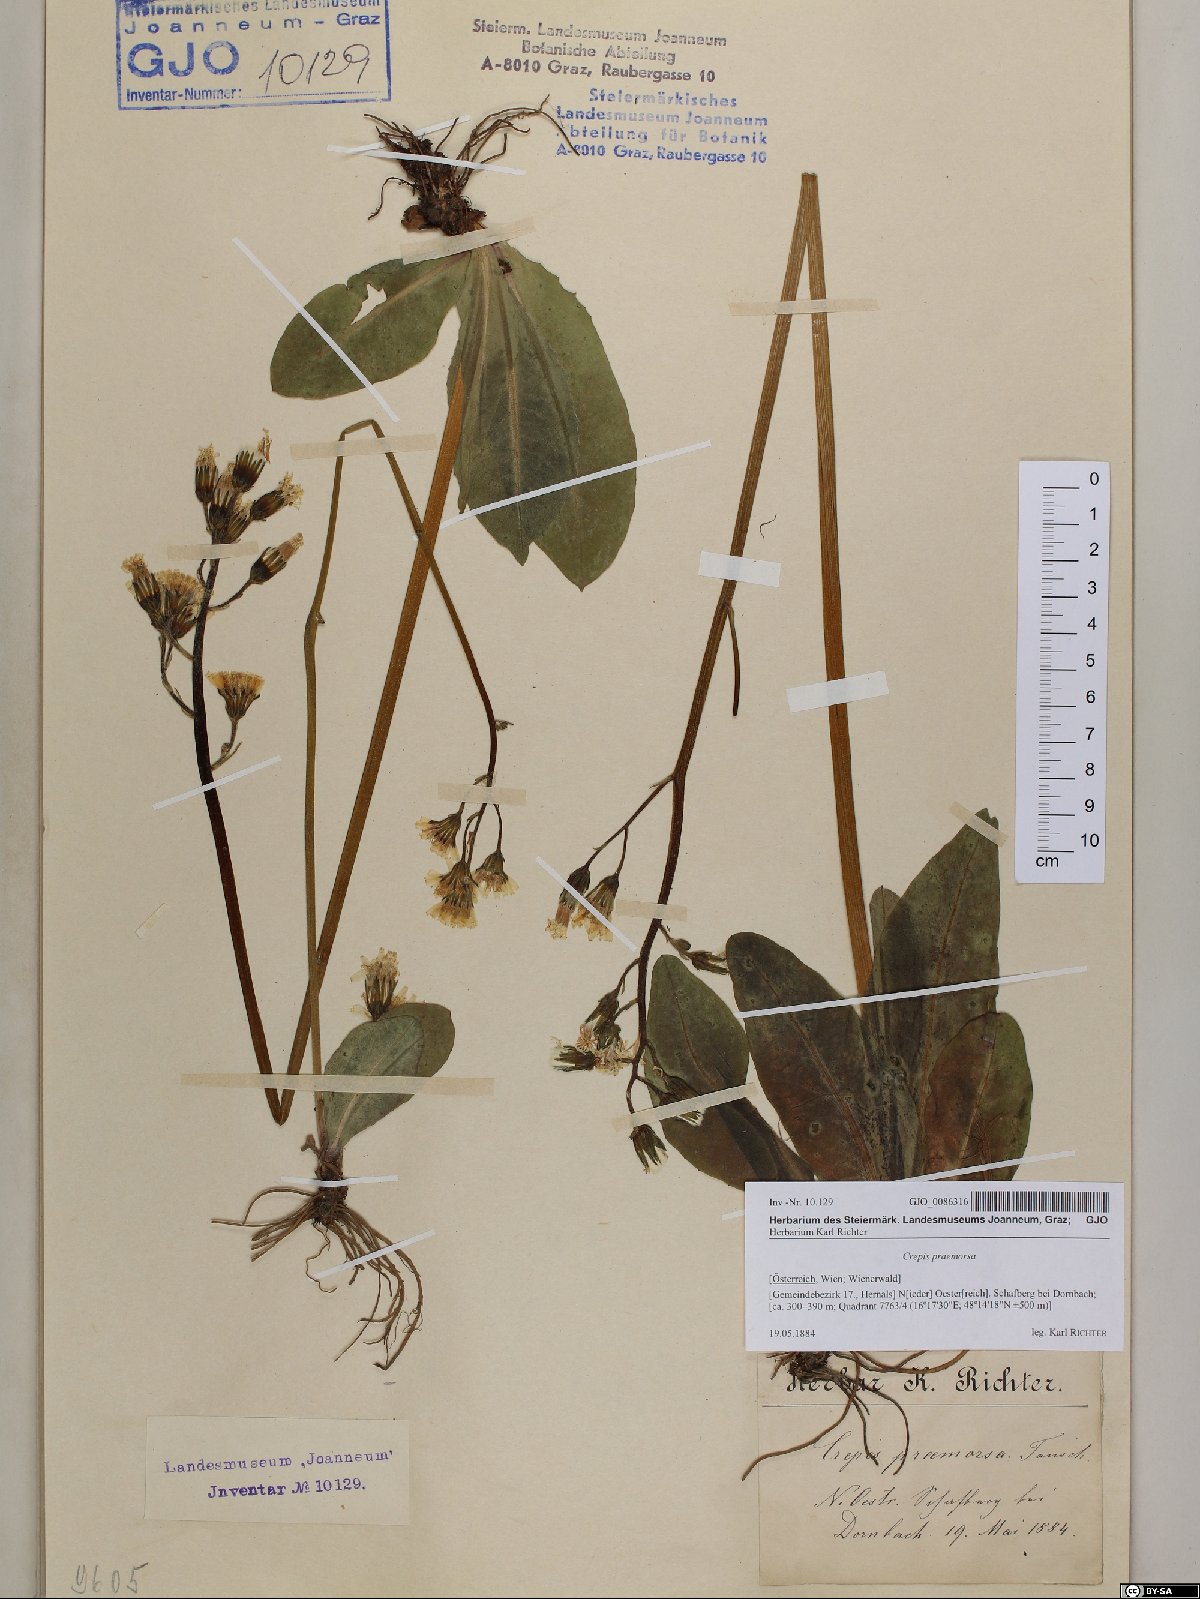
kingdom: Plantae
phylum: Tracheophyta
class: Magnoliopsida
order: Asterales
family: Asteraceae
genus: Crepis
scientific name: Crepis praemorsa
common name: Leafless hawk's-beard
